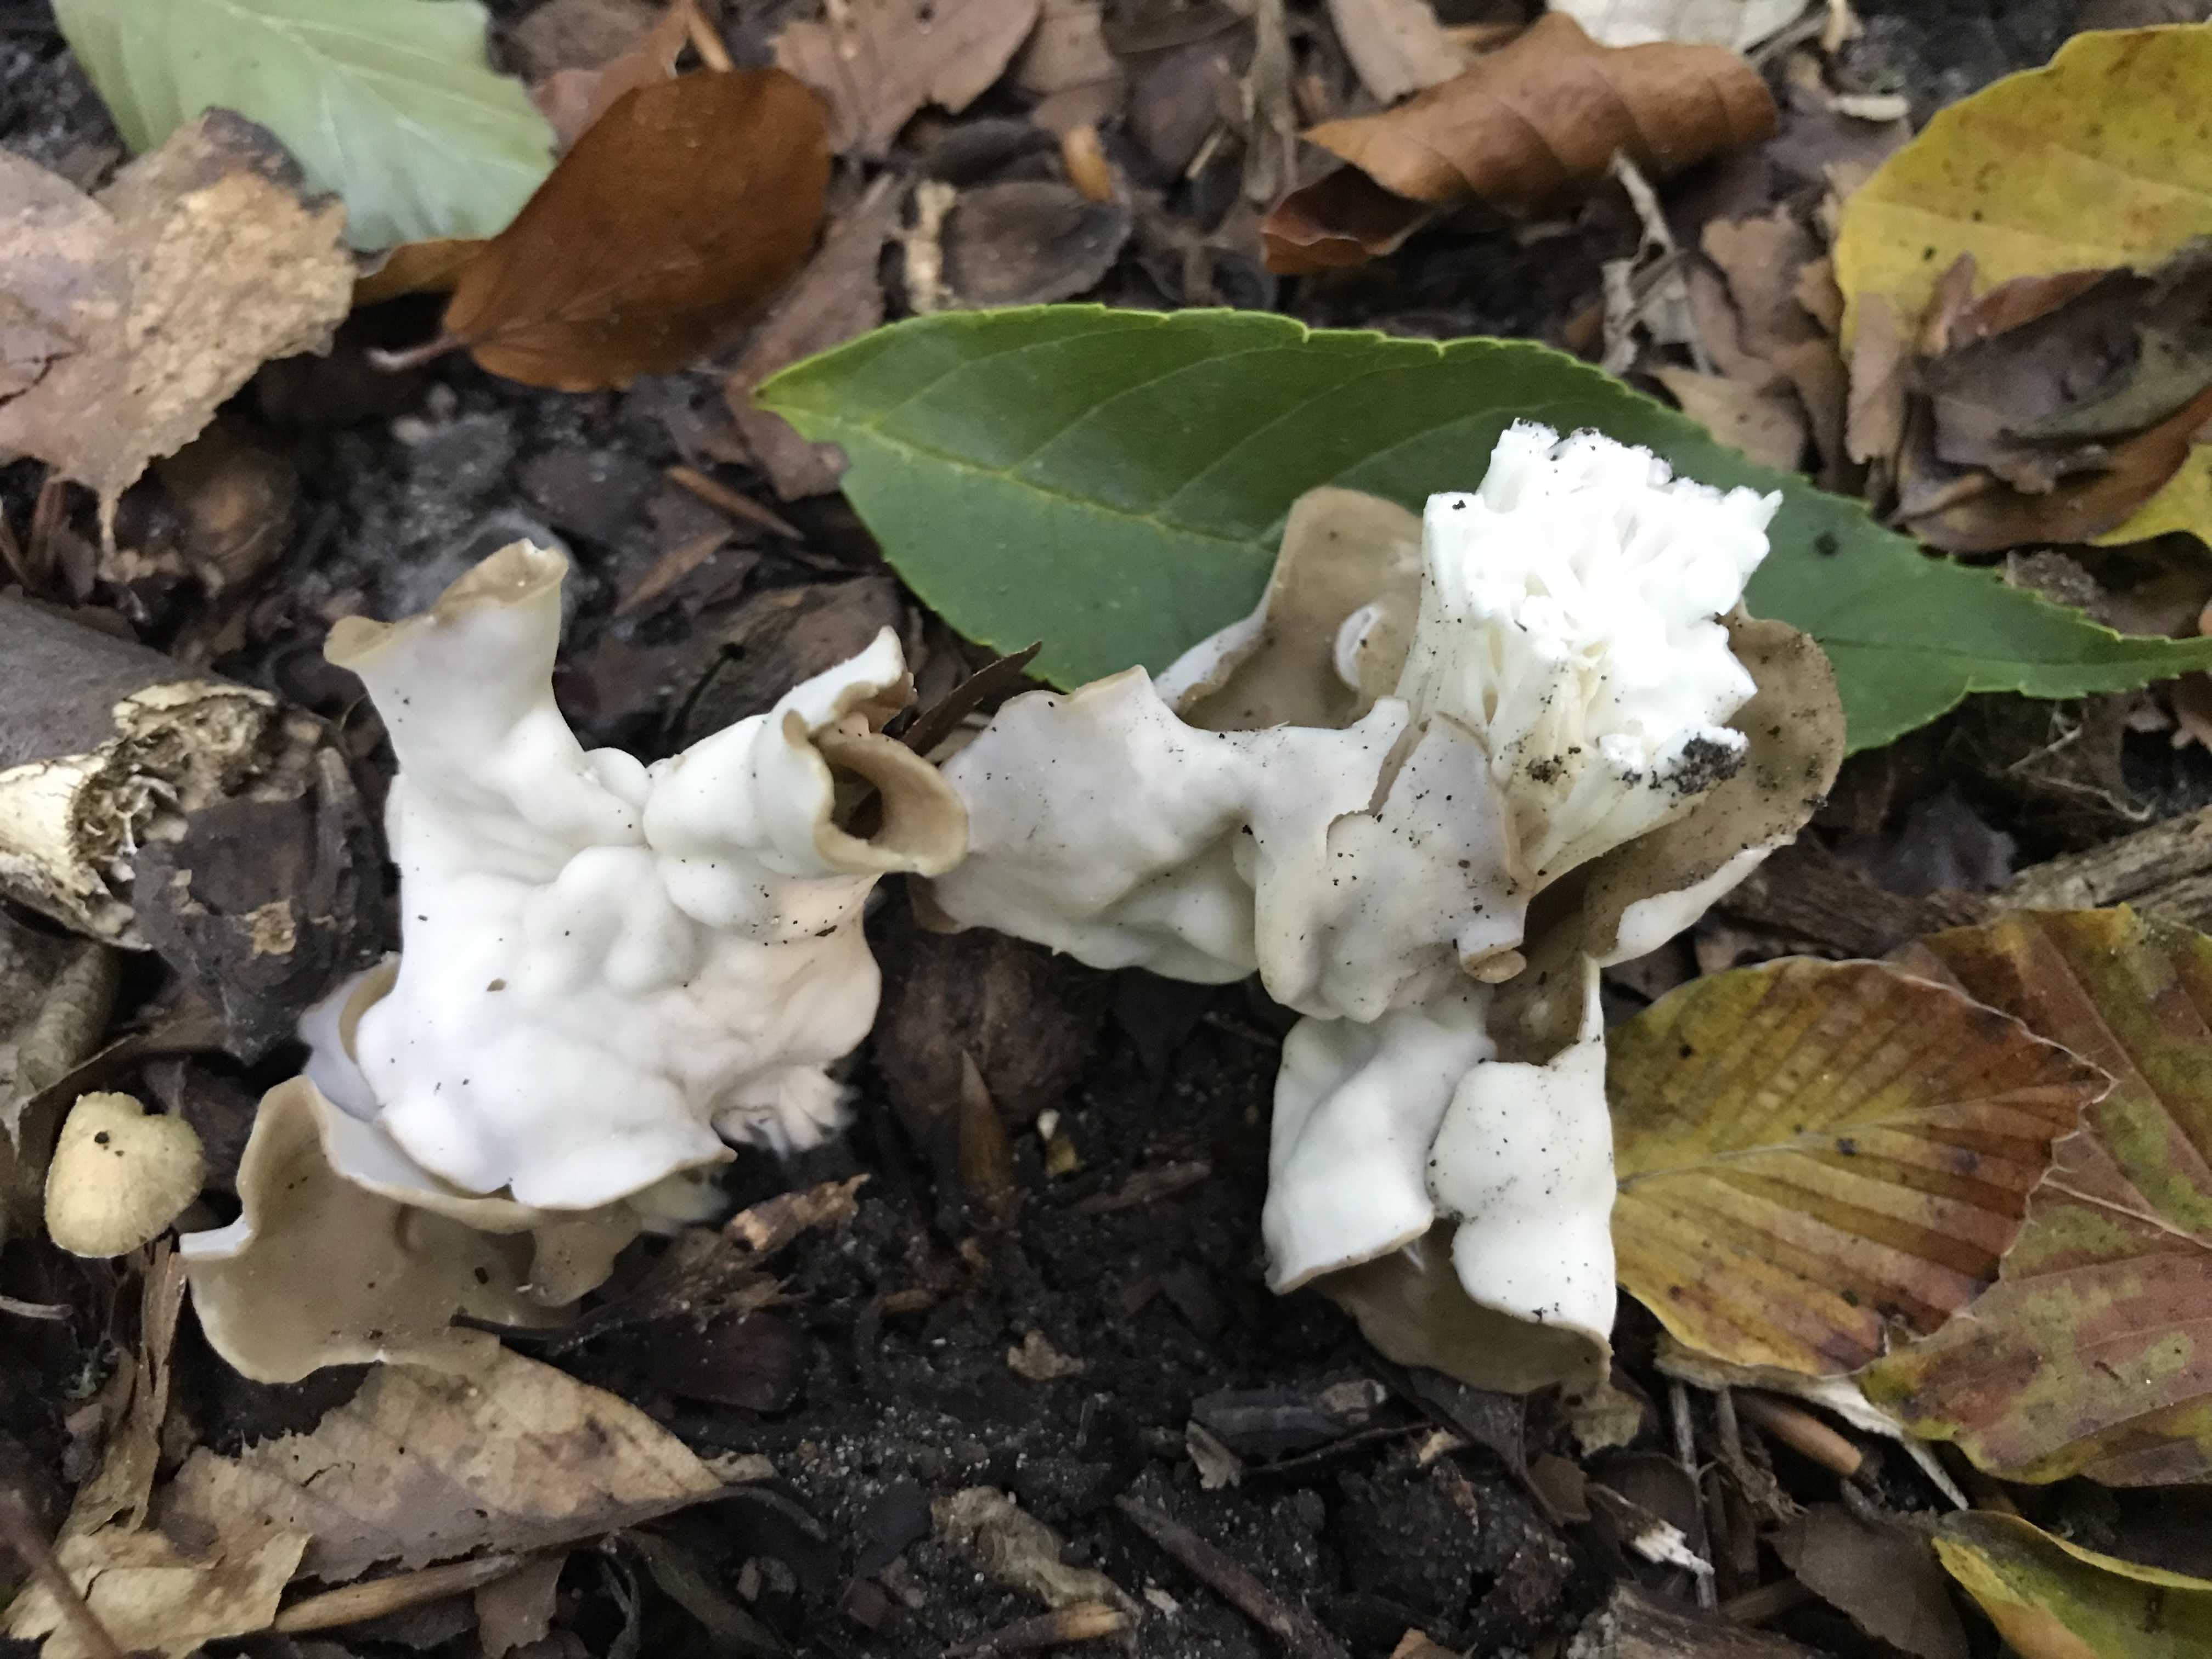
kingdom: Fungi
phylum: Ascomycota
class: Pezizomycetes
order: Pezizales
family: Helvellaceae
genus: Helvella
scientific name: Helvella crispa
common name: kruset foldhat
